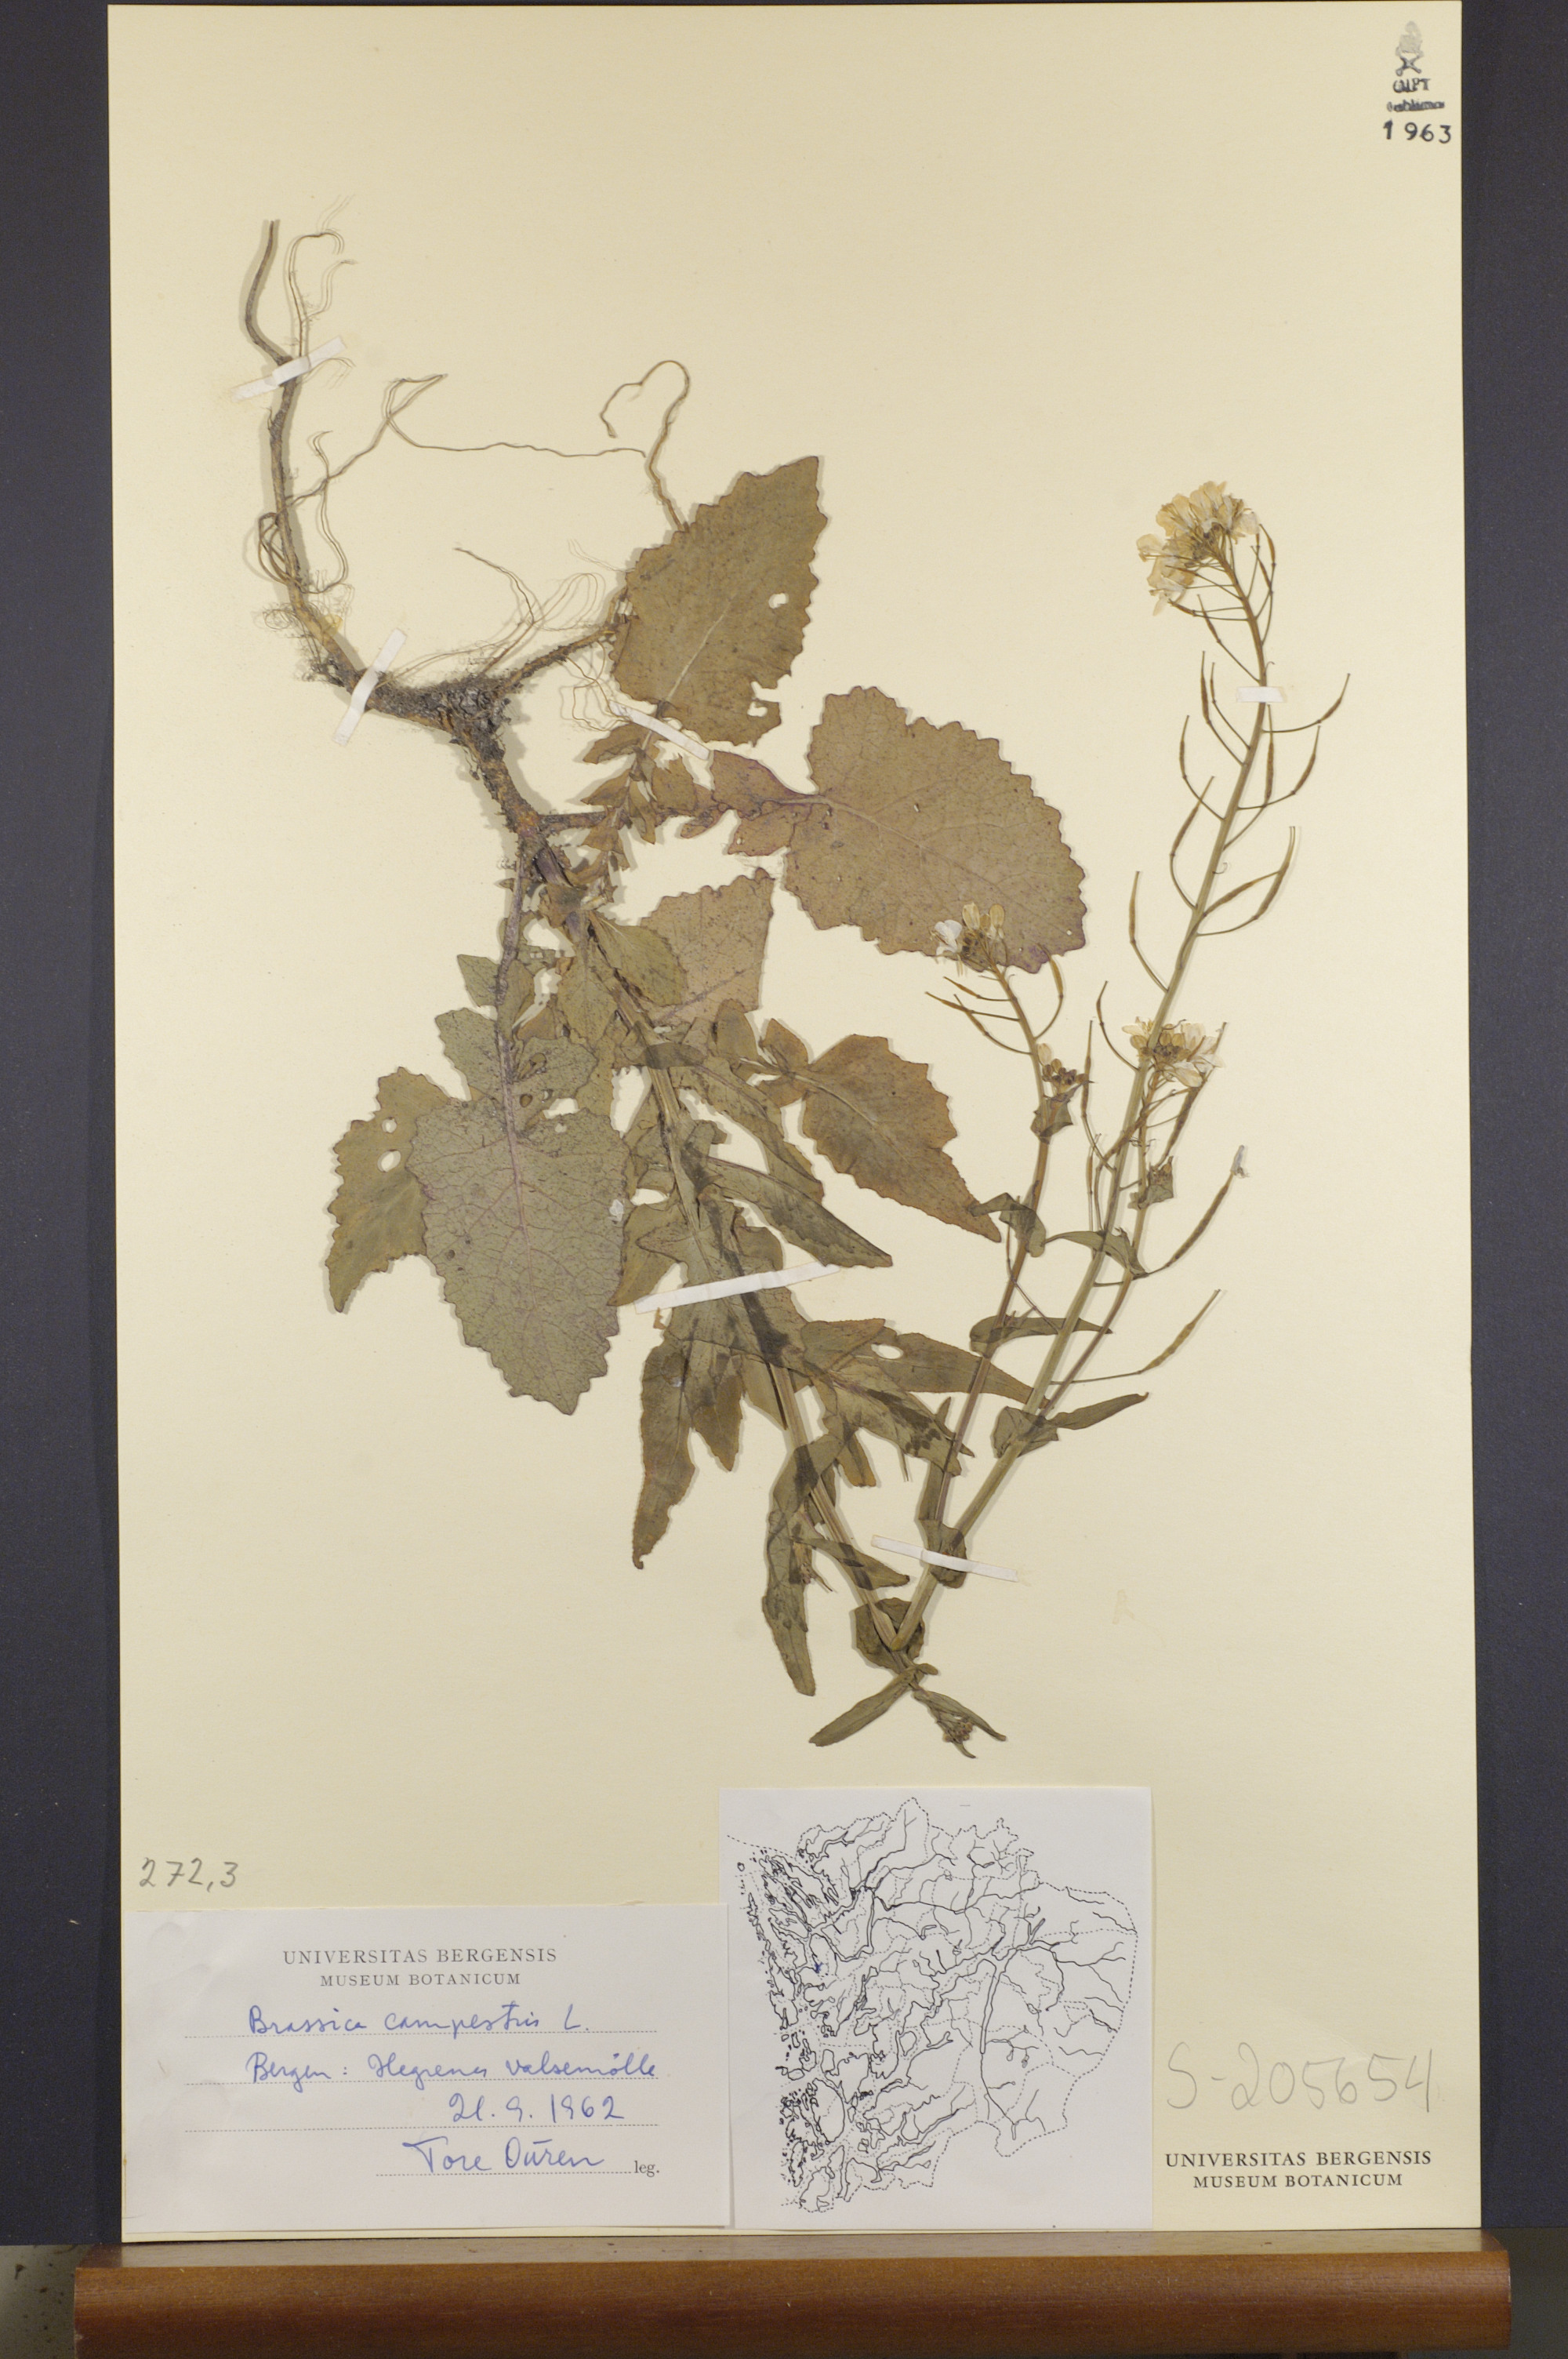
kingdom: Plantae
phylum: Tracheophyta
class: Magnoliopsida
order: Brassicales
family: Brassicaceae
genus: Brassica
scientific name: Brassica rapa
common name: Field mustard
